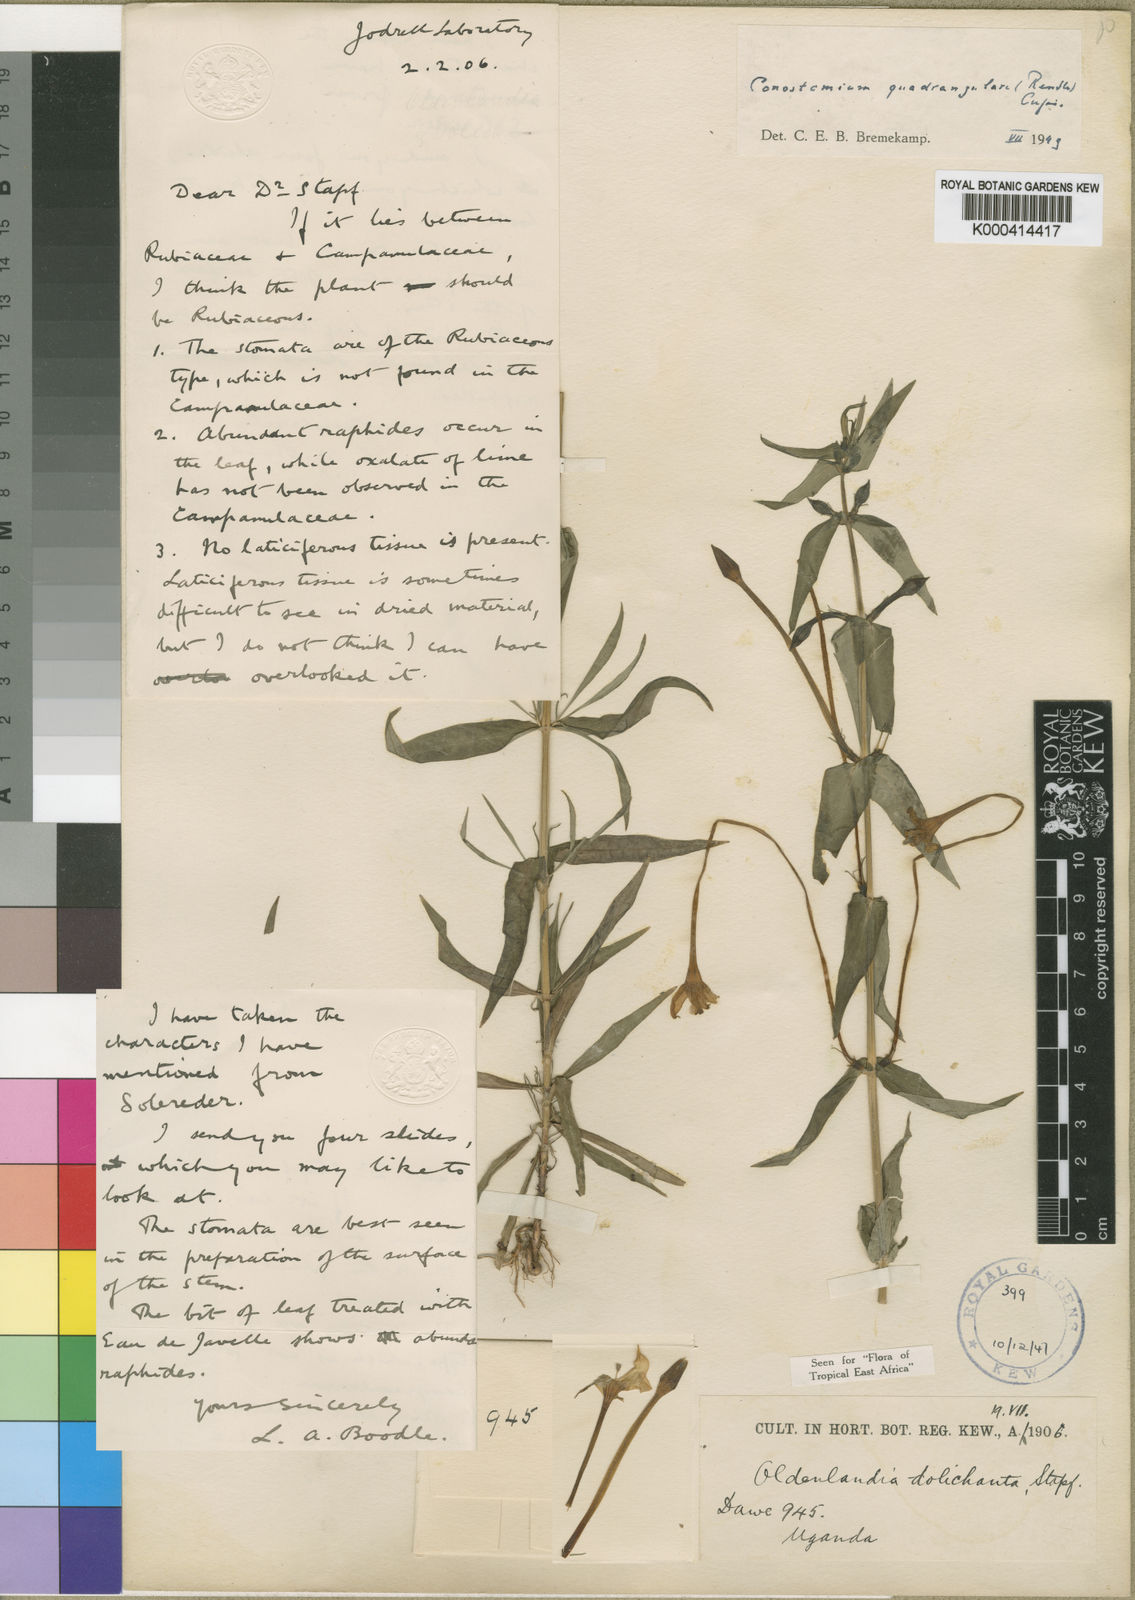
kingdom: Plantae
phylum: Tracheophyta
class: Magnoliopsida
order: Gentianales
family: Rubiaceae
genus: Conostomium
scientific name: Conostomium quadrangulare
